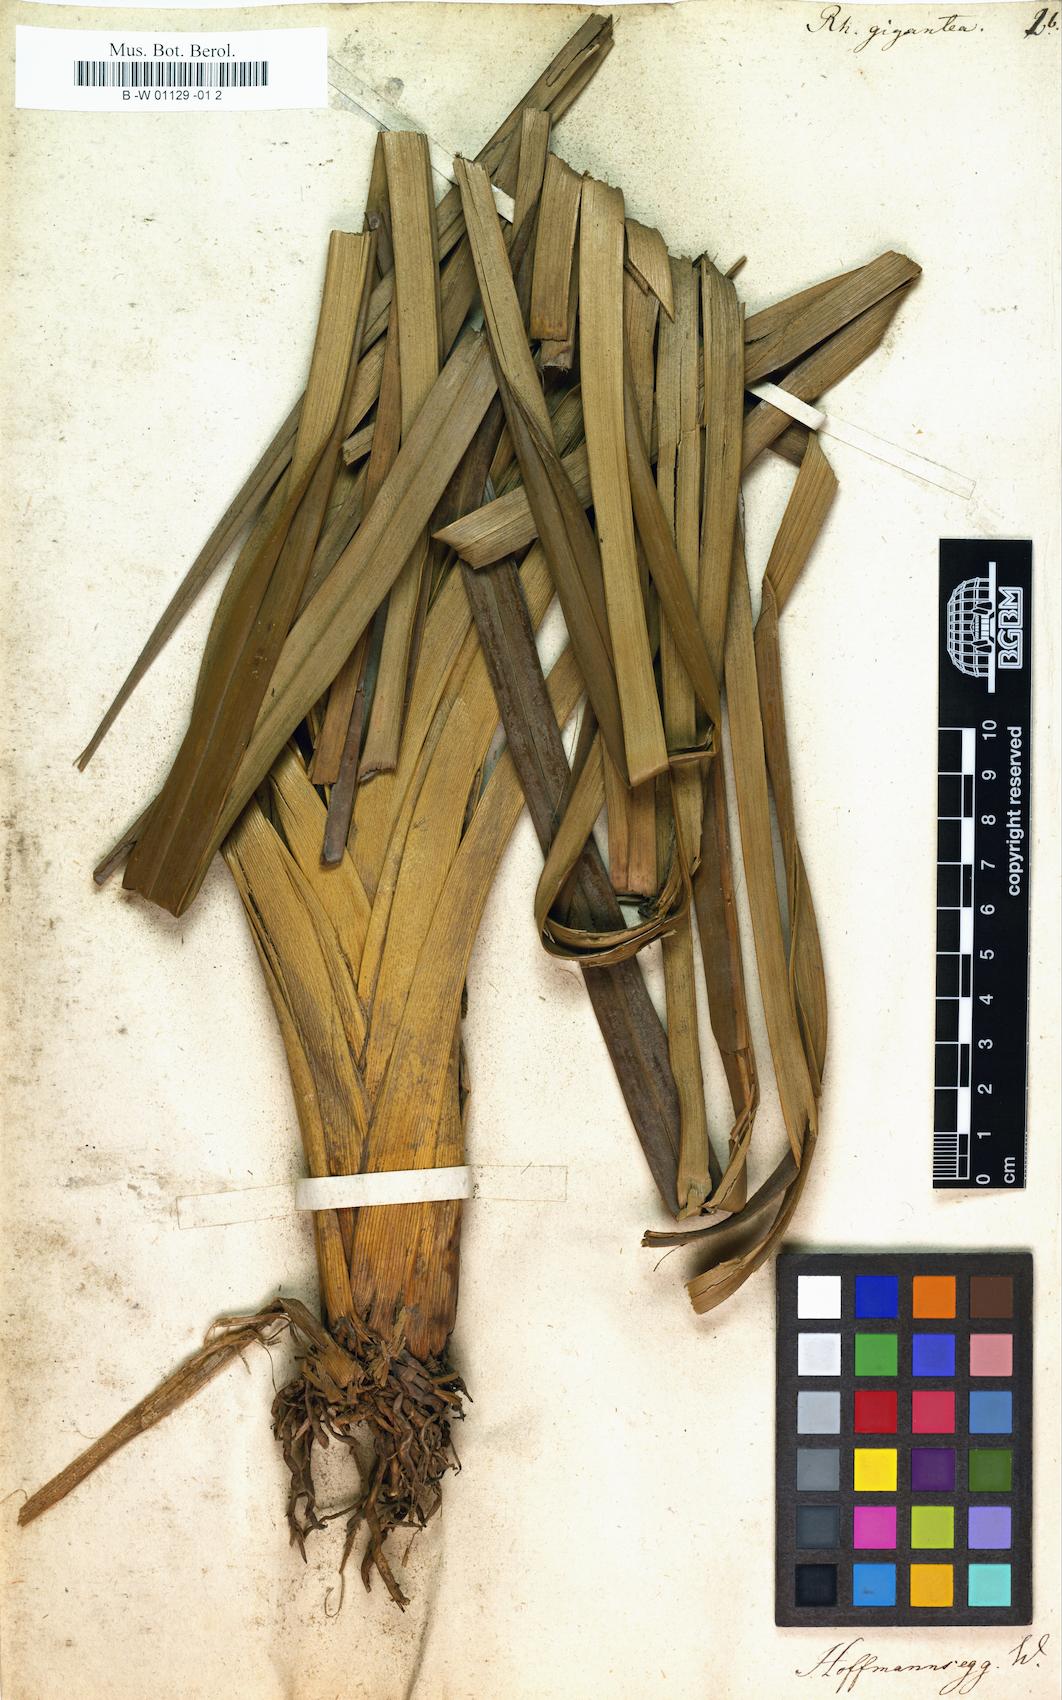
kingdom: Plantae
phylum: Tracheophyta
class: Liliopsida
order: Poales
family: Cyperaceae
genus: Rhynchospora
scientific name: Rhynchospora gigantea
